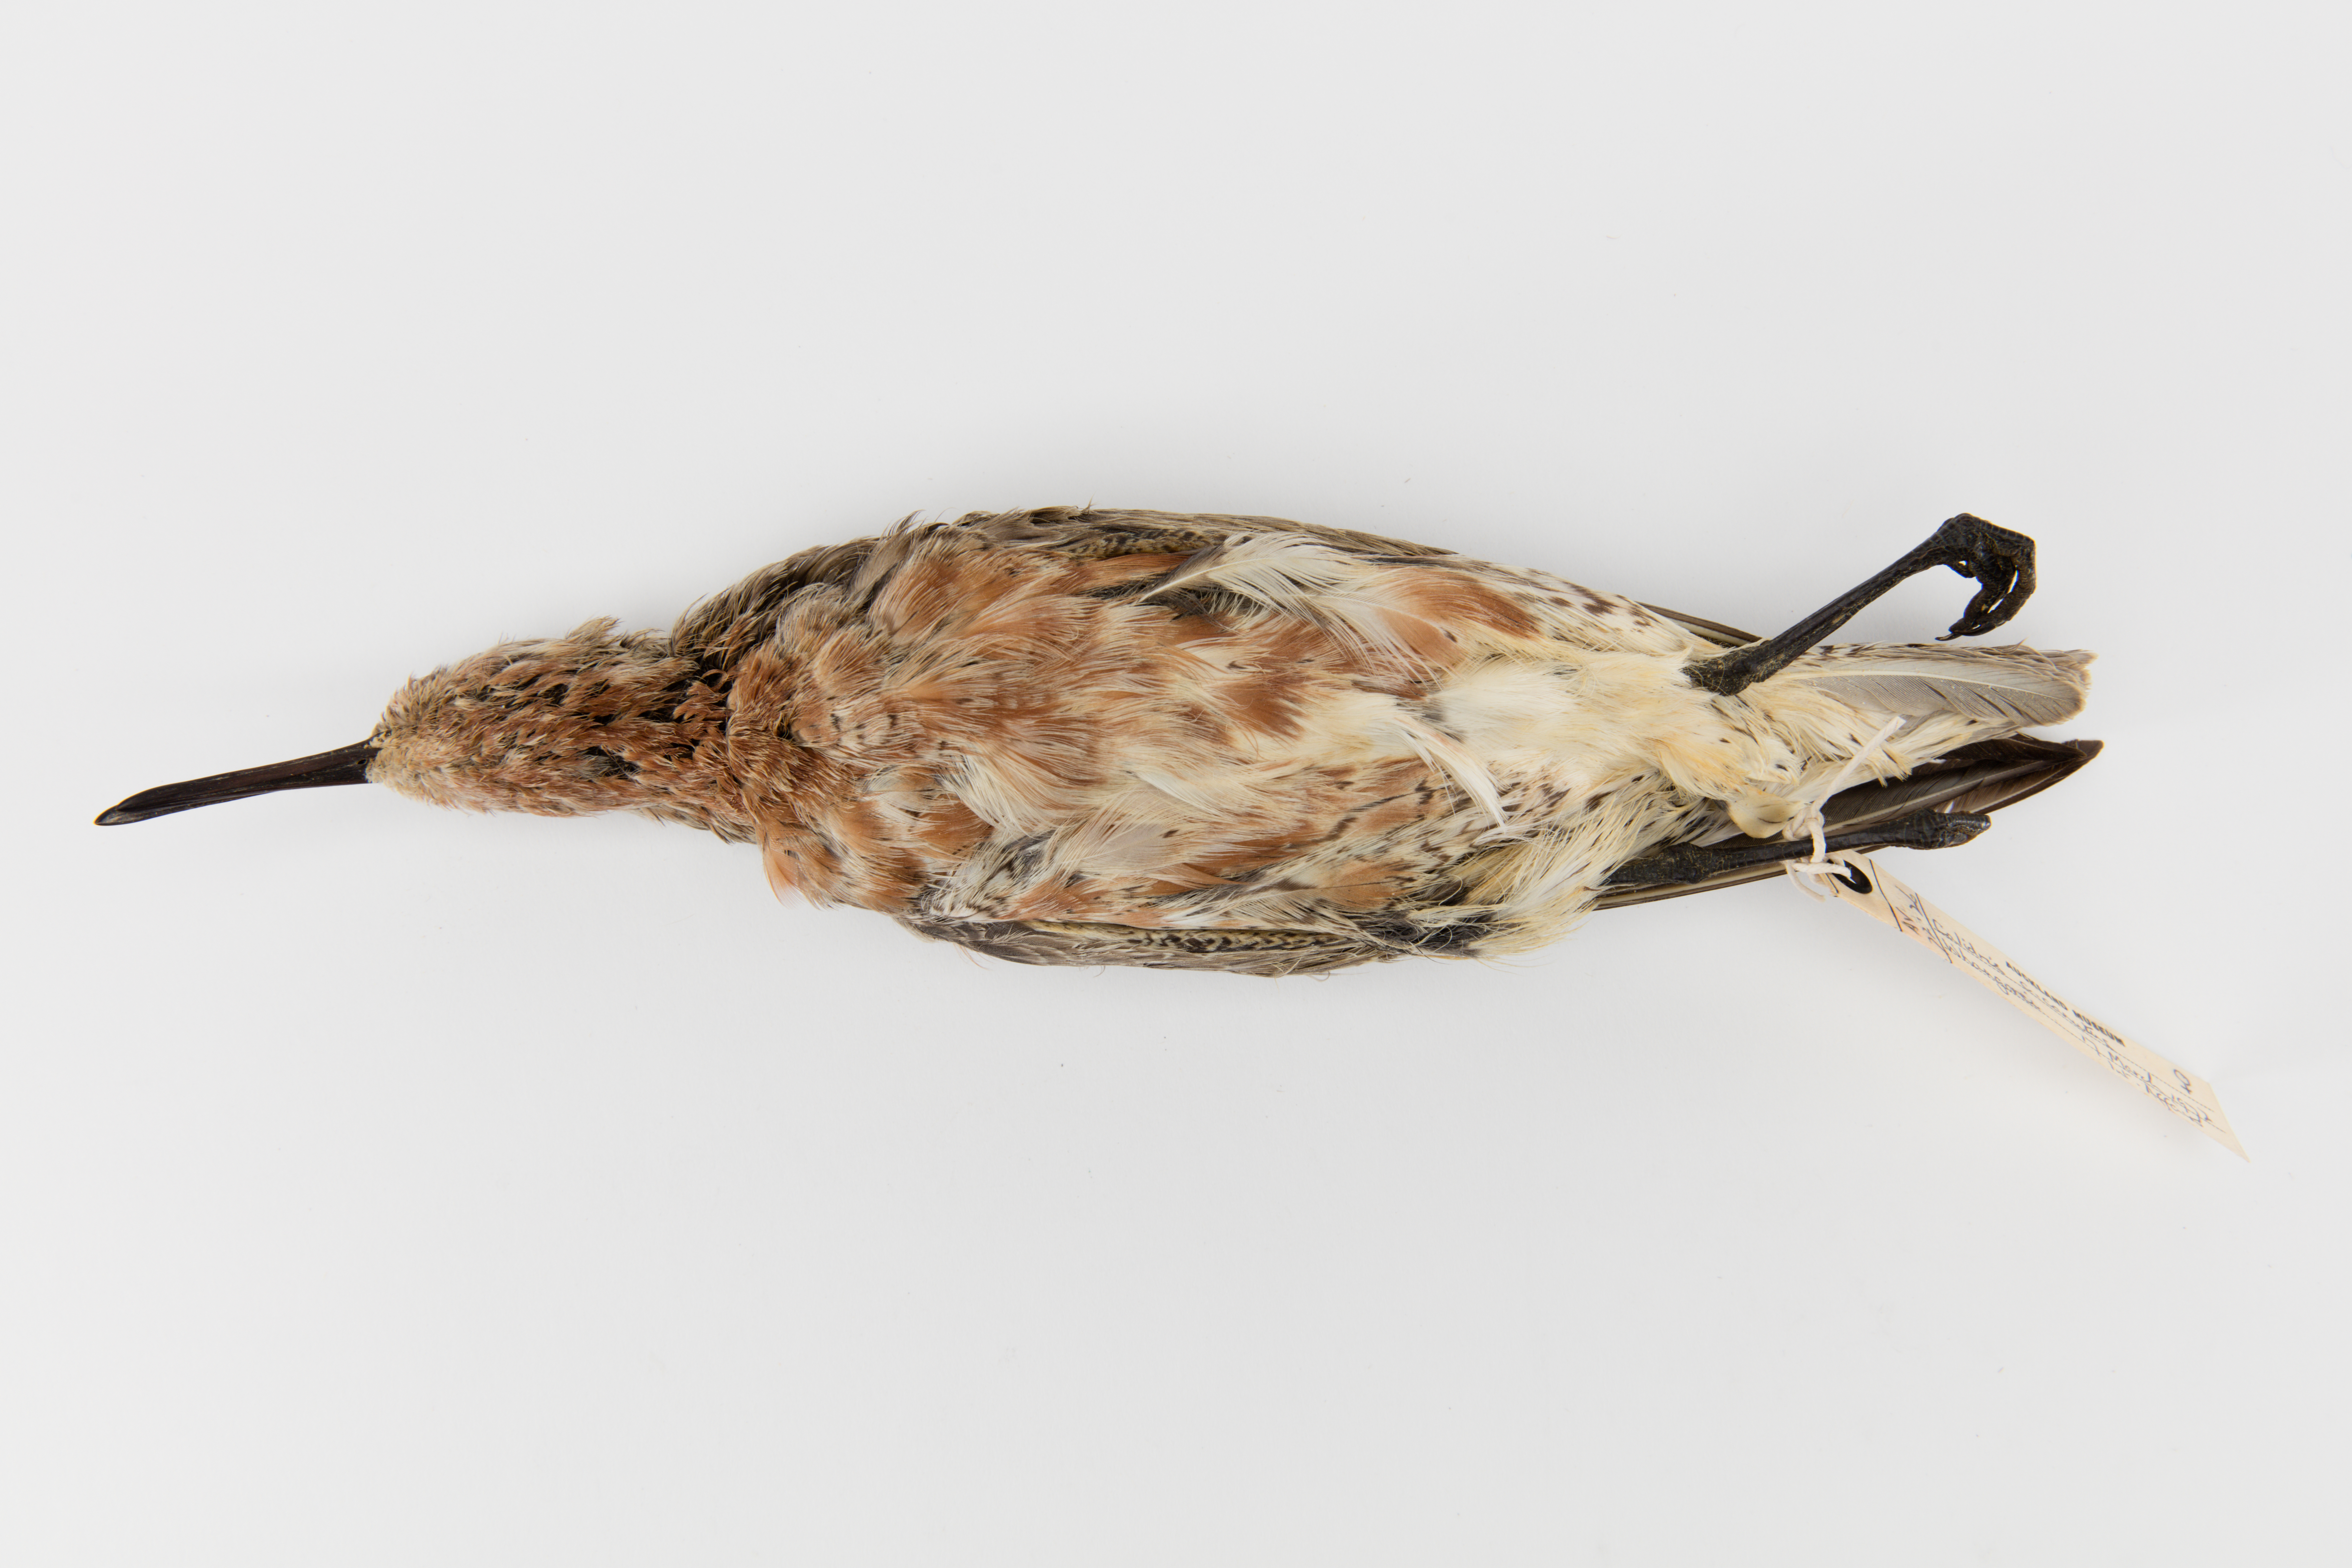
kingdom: Animalia
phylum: Chordata
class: Aves
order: Charadriiformes
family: Scolopacidae
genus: Calidris
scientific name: Calidris canutus
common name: Red knot
